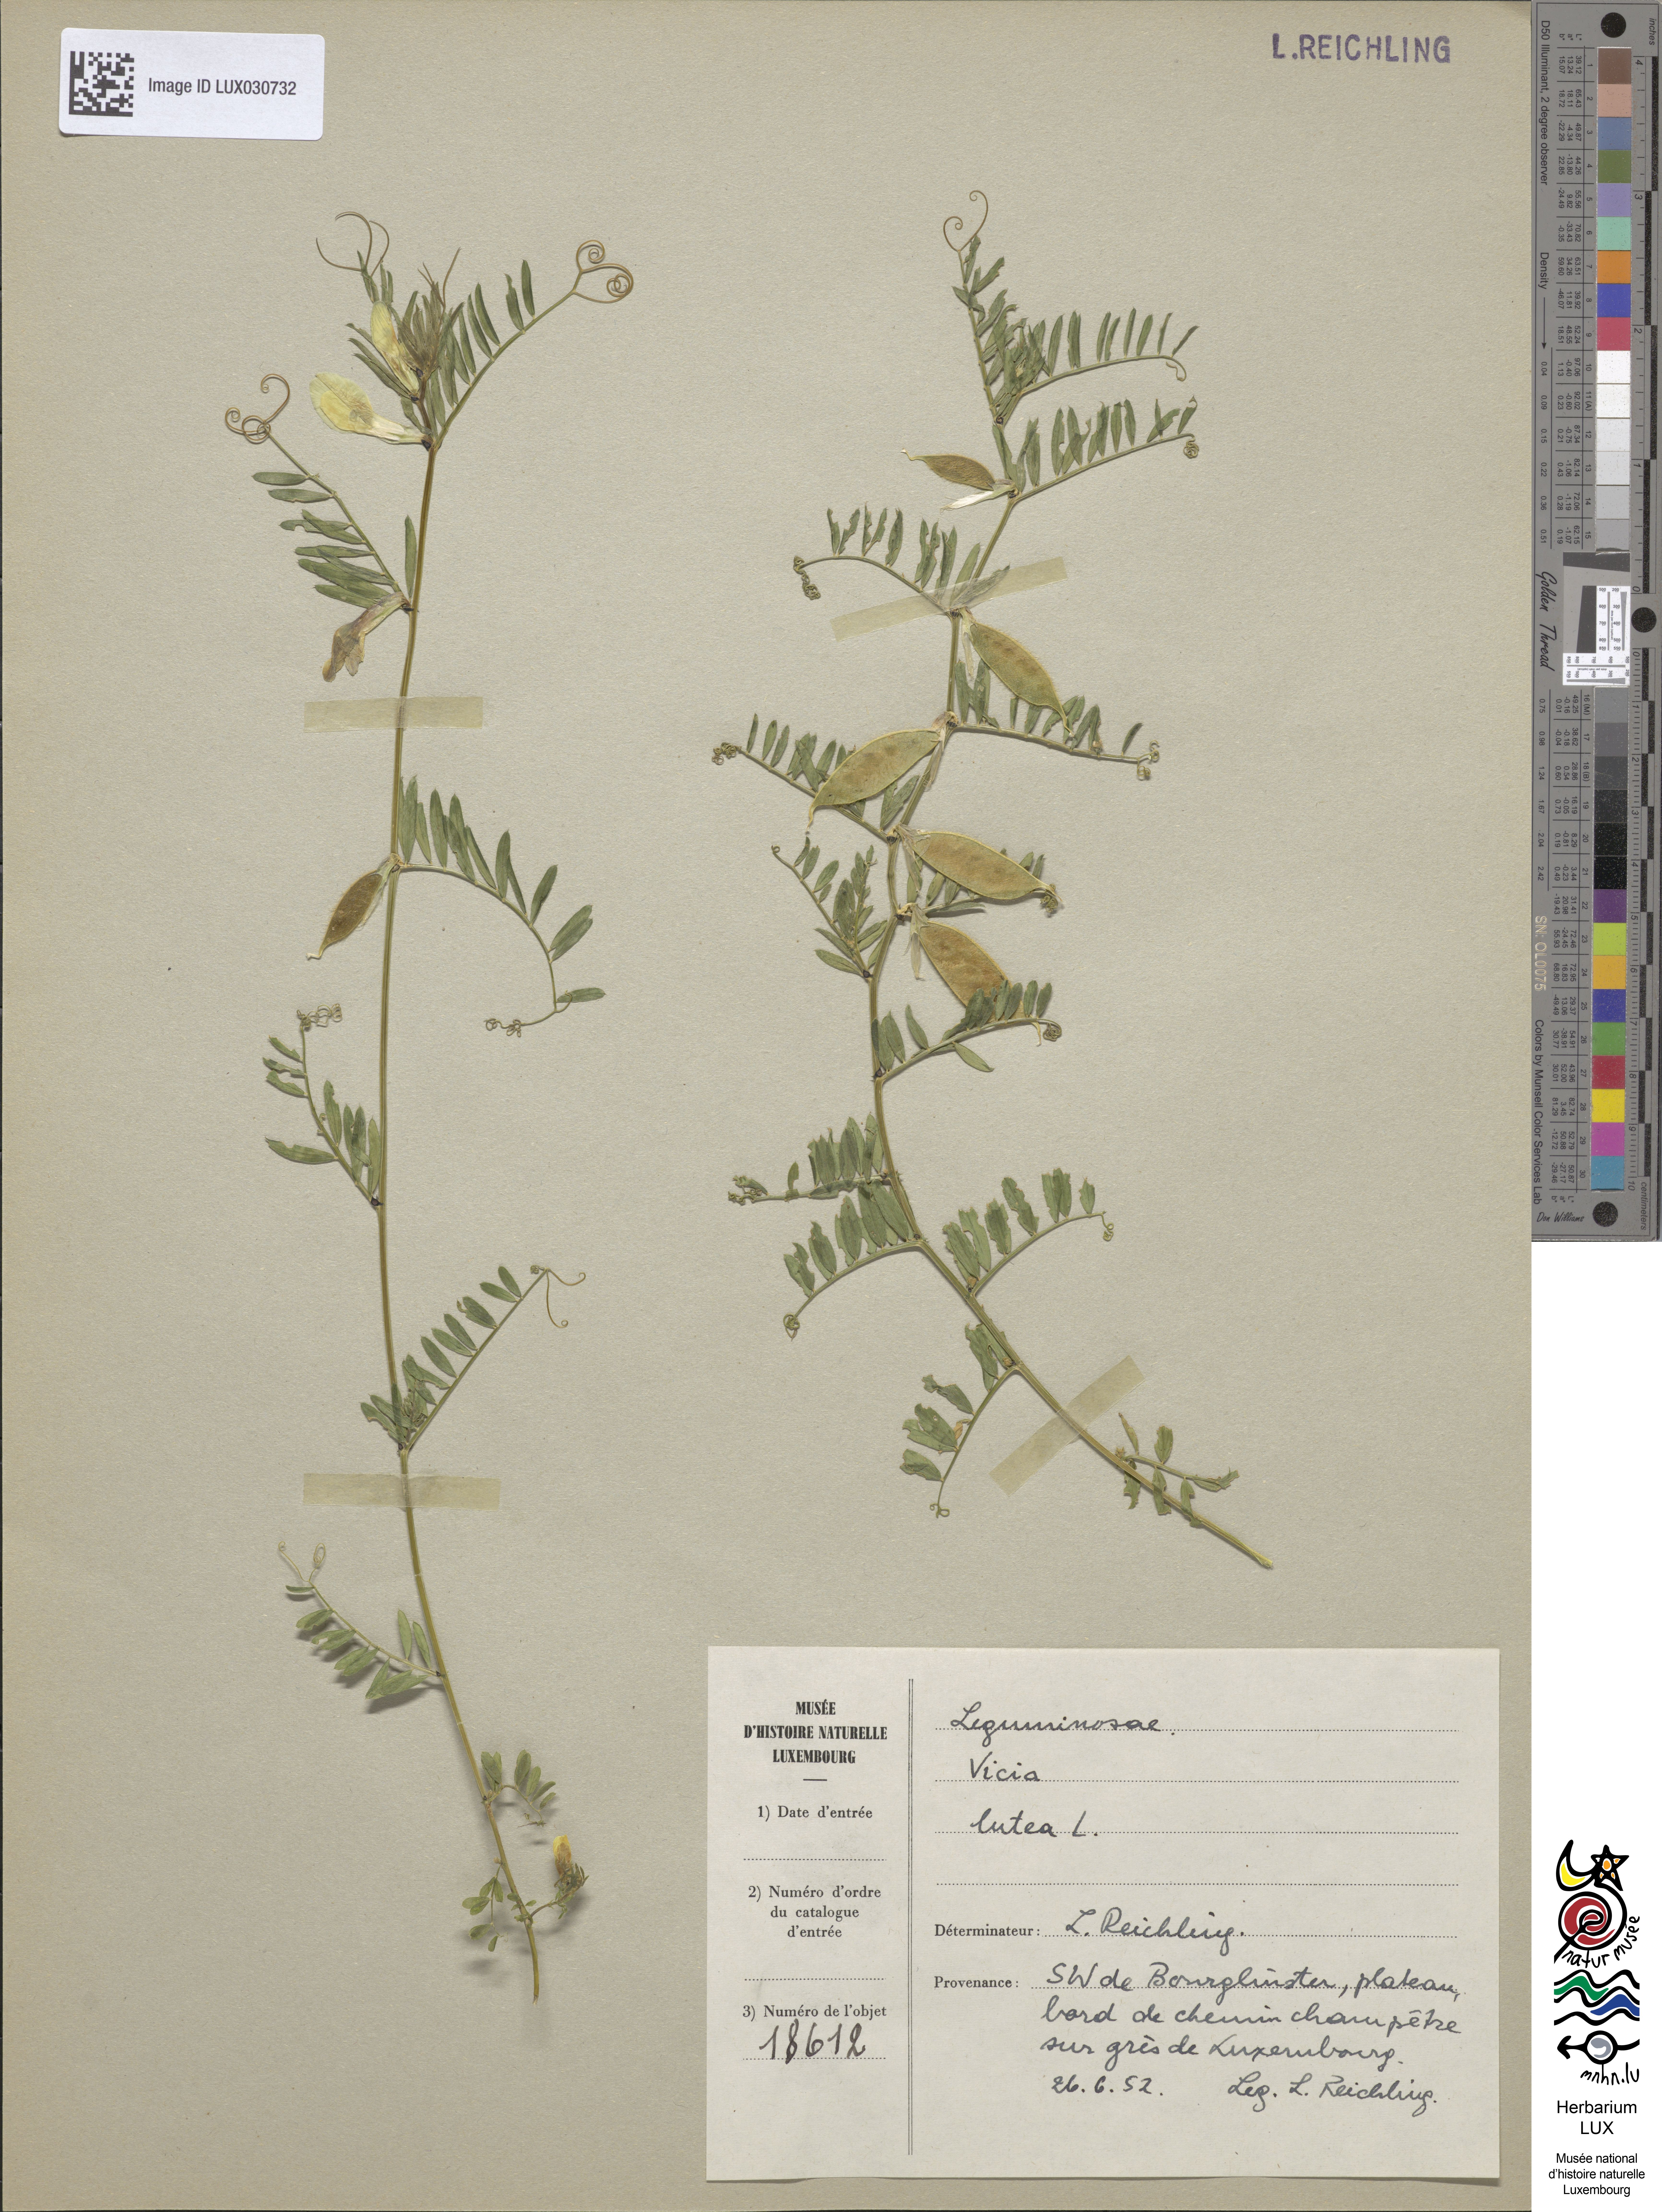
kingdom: Plantae
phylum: Tracheophyta
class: Magnoliopsida
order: Fabales
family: Fabaceae
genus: Vicia
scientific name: Vicia lutea
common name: Smooth yellow vetch
